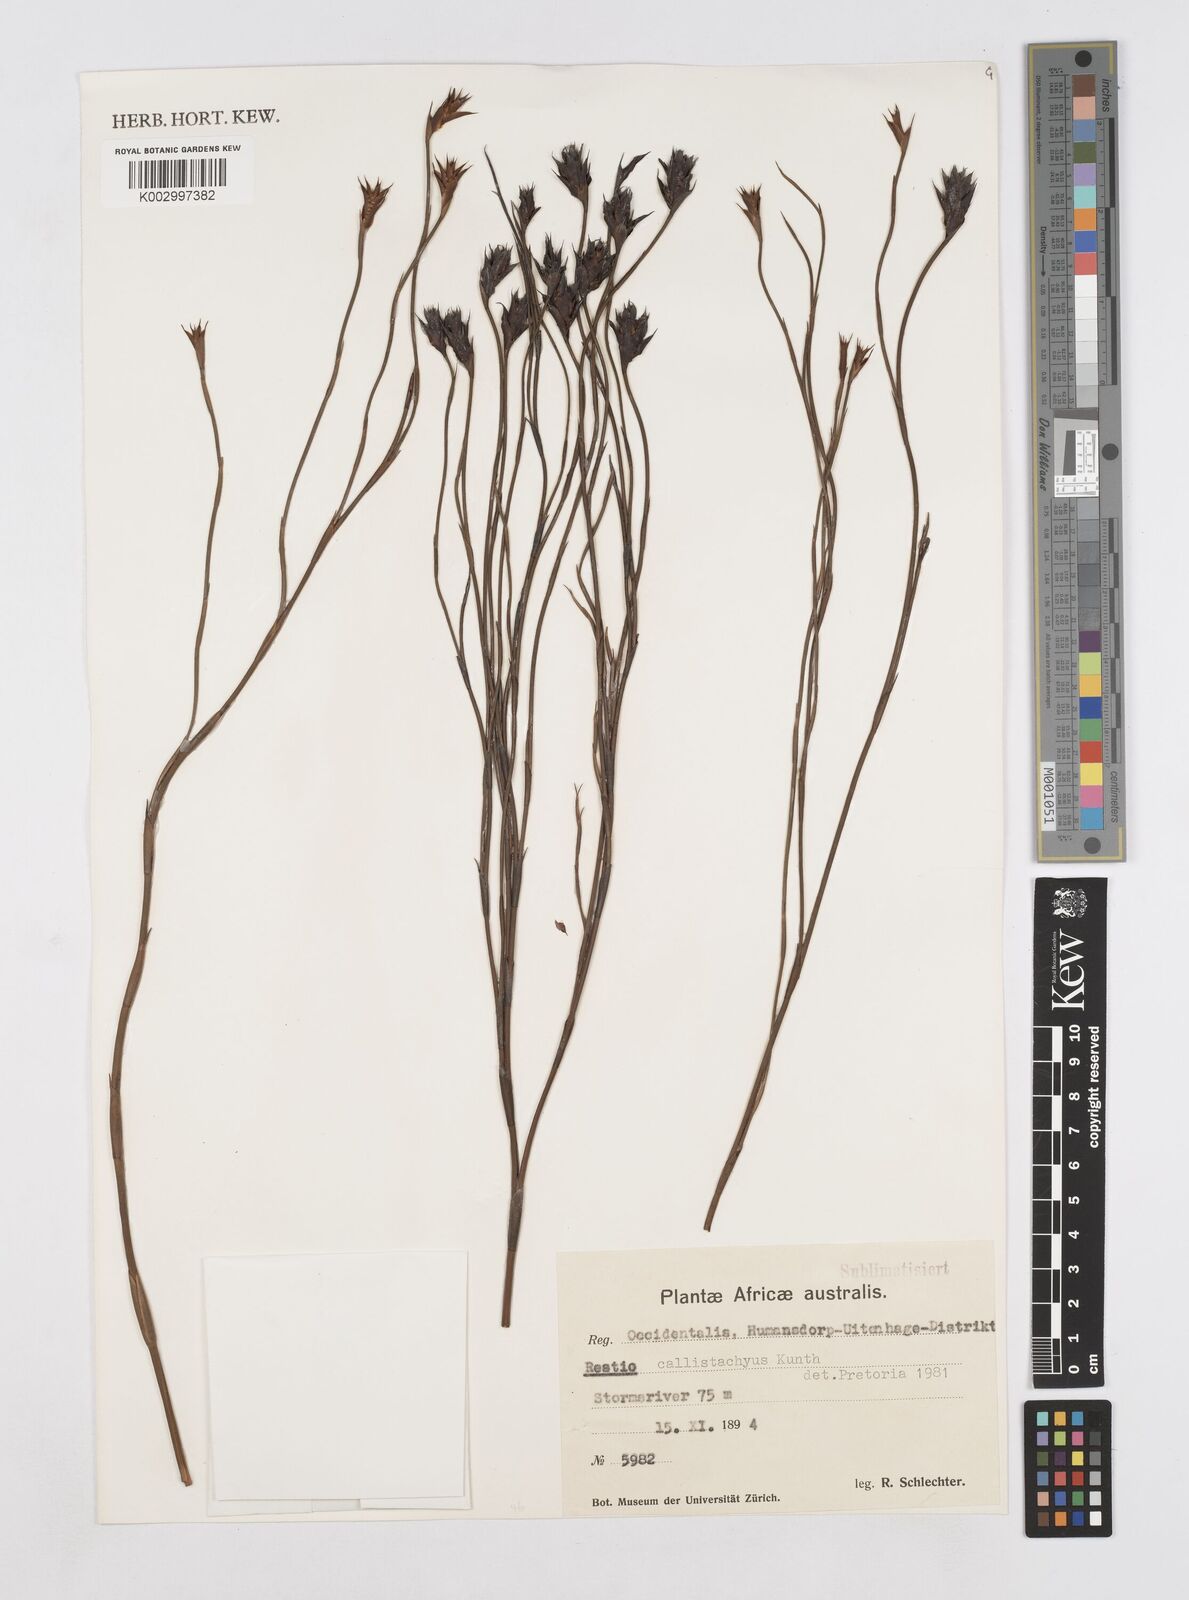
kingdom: Plantae
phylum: Tracheophyta
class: Liliopsida
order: Poales
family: Restionaceae
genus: Platycaulos
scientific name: Platycaulos callistachyus
